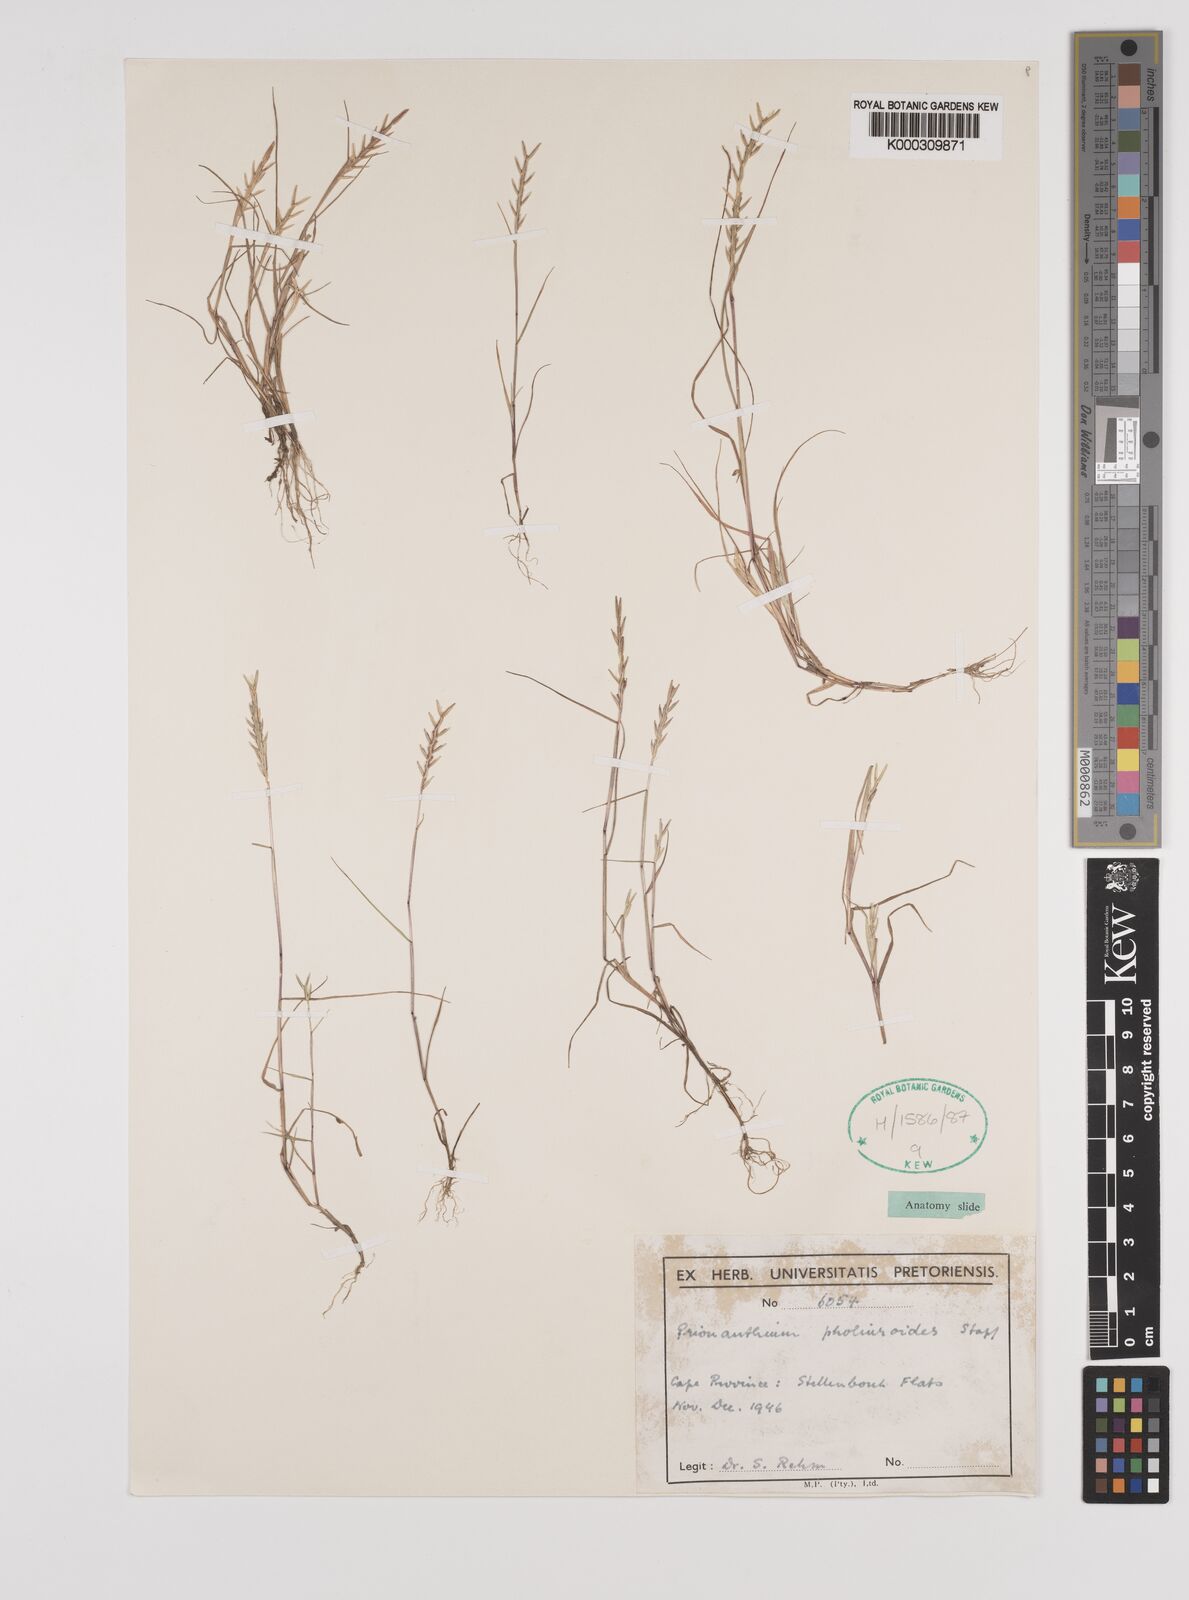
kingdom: Plantae
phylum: Tracheophyta
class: Liliopsida
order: Poales
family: Poaceae
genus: Pentameris
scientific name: Pentameris pholiuroides
